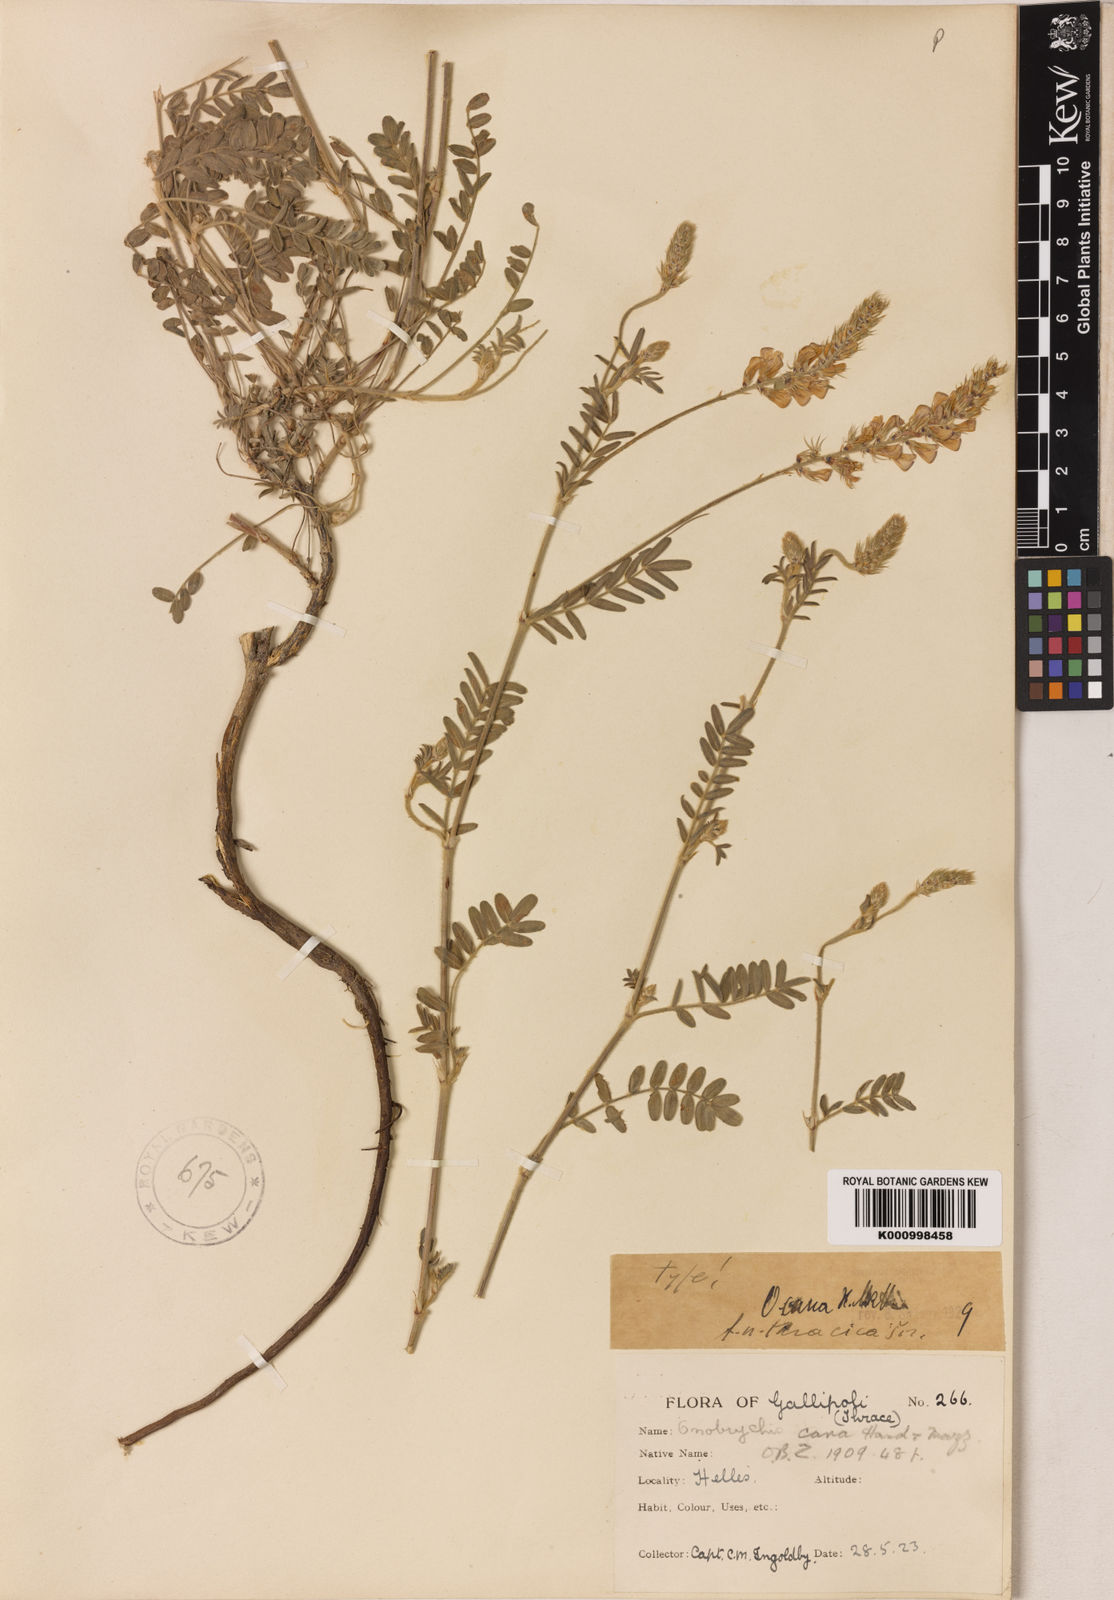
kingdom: Plantae
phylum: Tracheophyta
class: Magnoliopsida
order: Fabales
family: Fabaceae
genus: Onobrychis
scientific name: Onobrychis arenaria
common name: Sand esparcet
